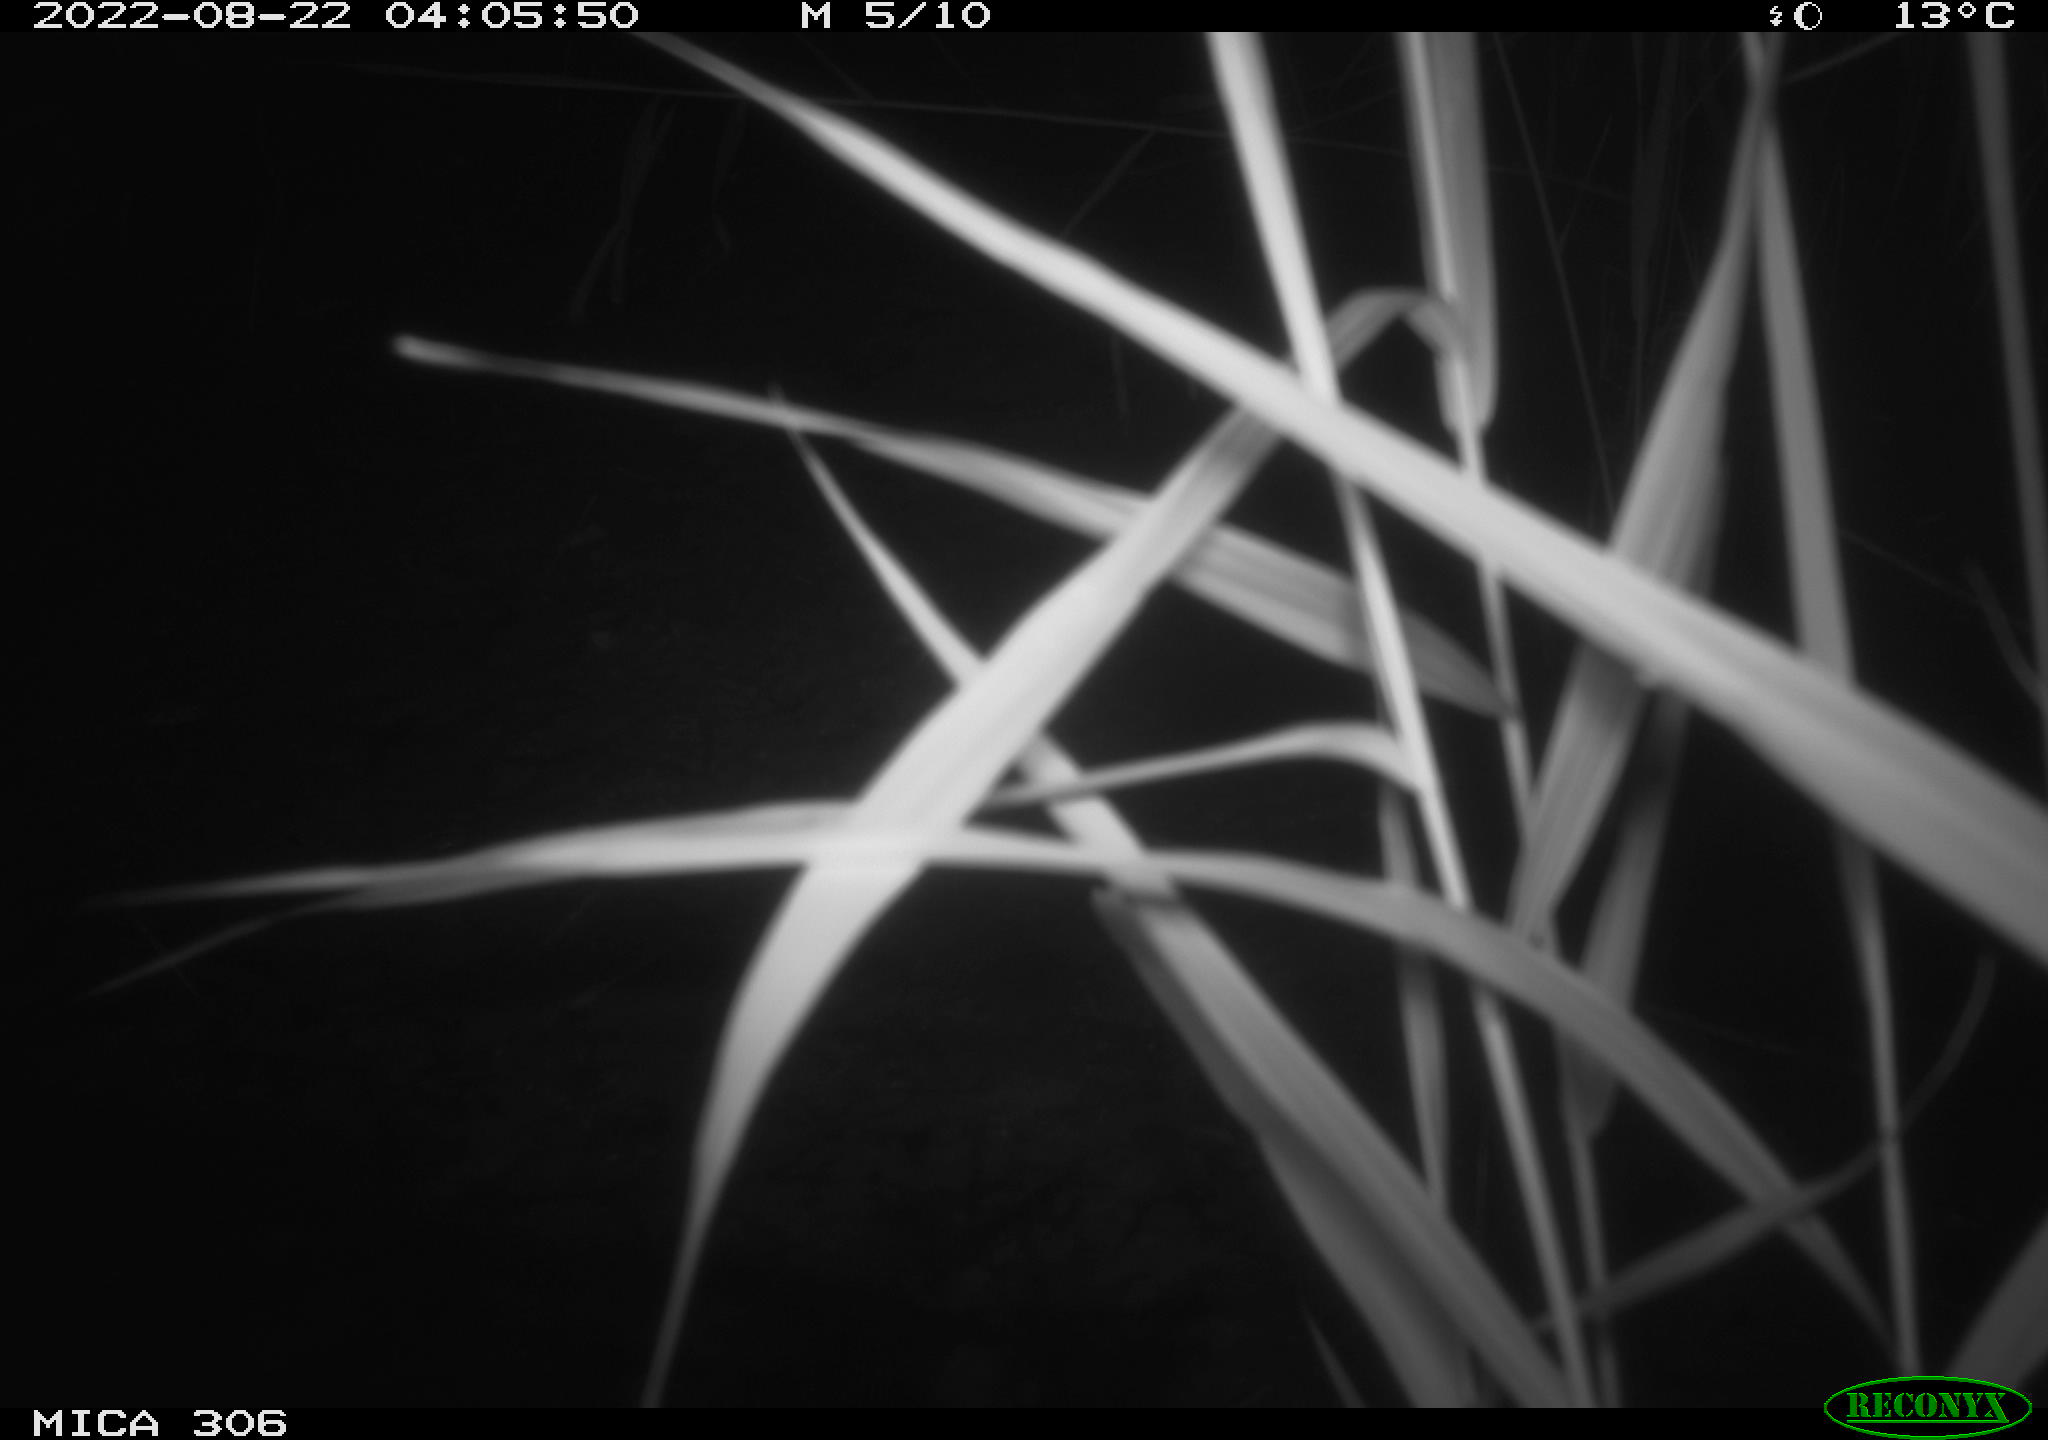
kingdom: Animalia
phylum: Chordata
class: Mammalia
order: Rodentia
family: Muridae
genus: Rattus
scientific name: Rattus norvegicus
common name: Brown rat
